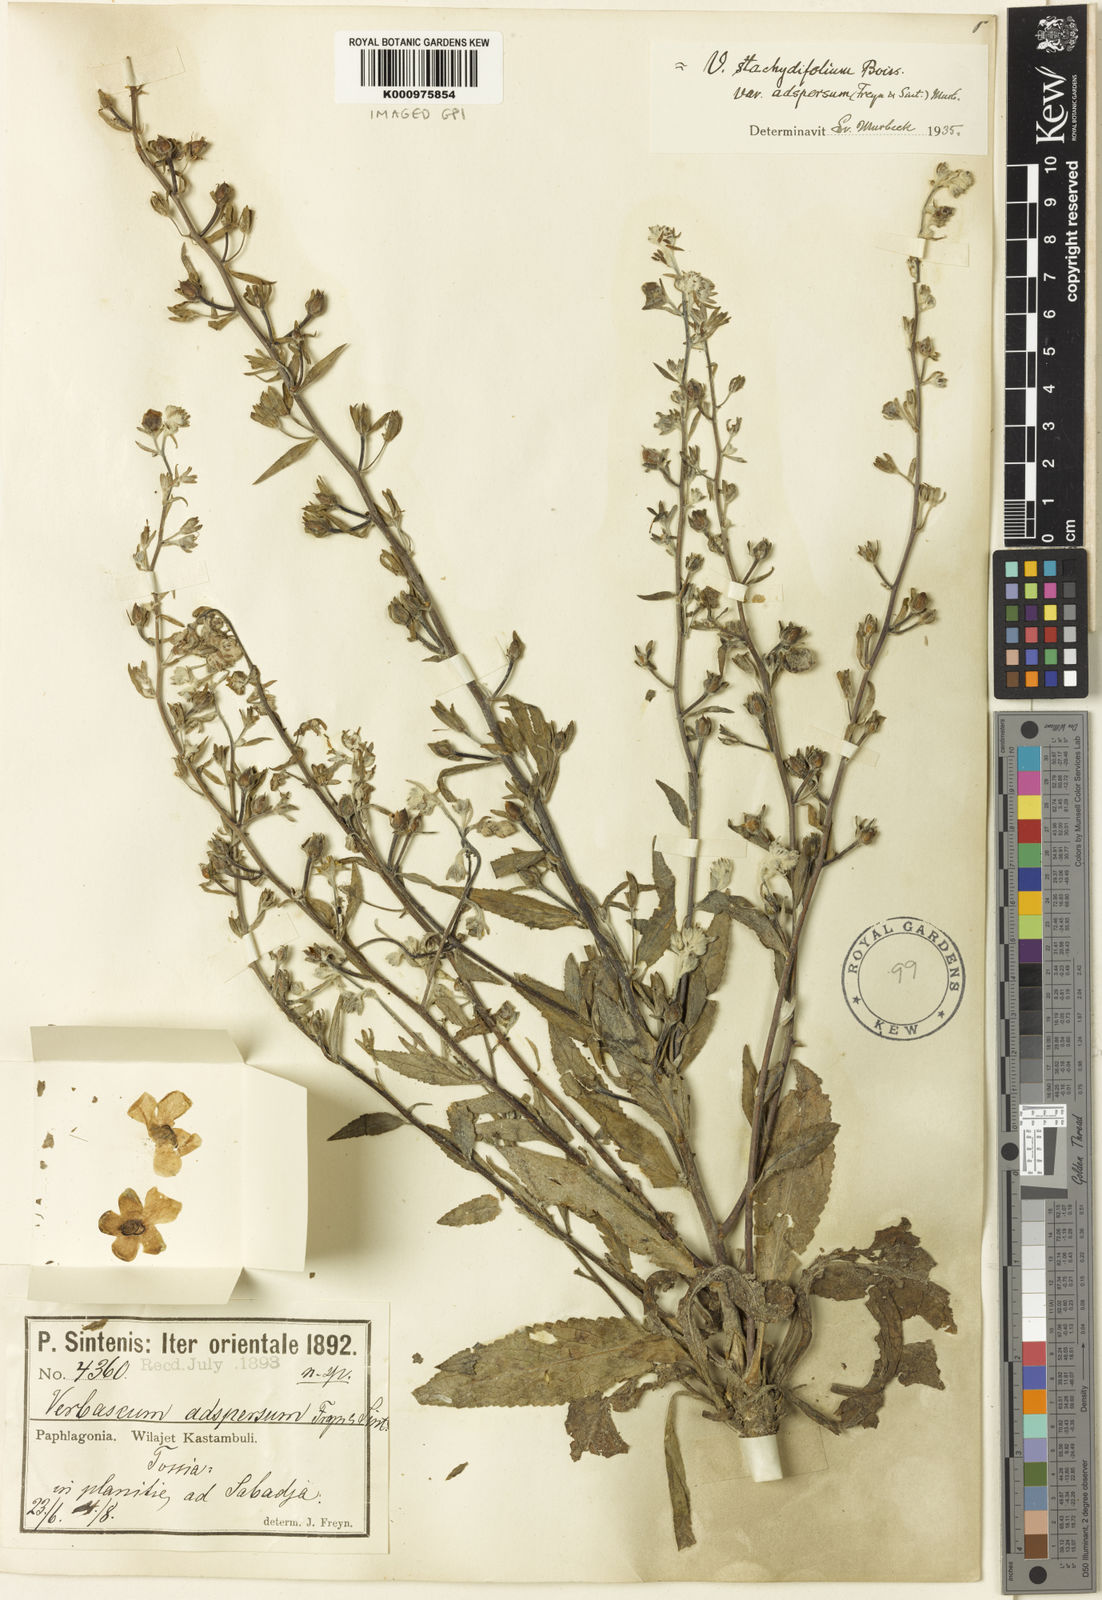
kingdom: Plantae
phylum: Tracheophyta
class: Magnoliopsida
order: Lamiales
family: Scrophulariaceae
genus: Verbascum
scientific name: Verbascum stachydifolium
